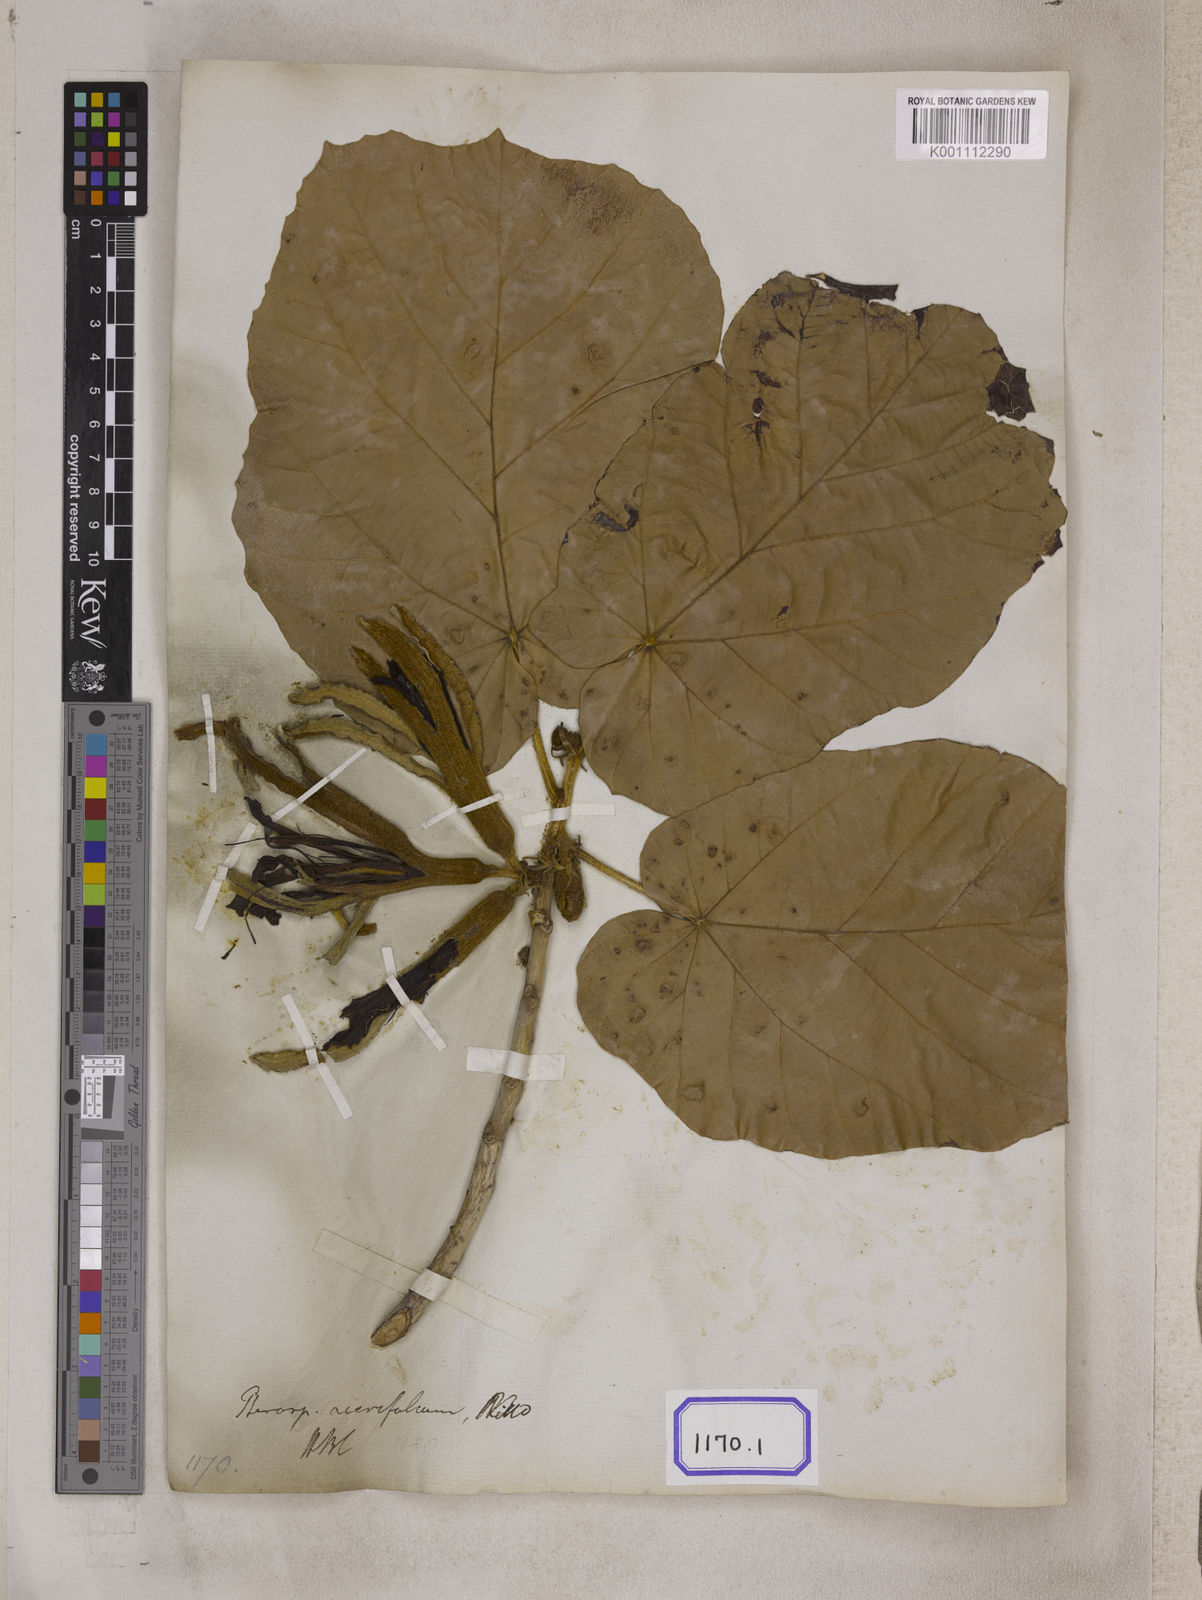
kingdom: Plantae
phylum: Tracheophyta
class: Magnoliopsida
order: Malvales
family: Malvaceae
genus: Pterospermum
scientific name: Pterospermum
